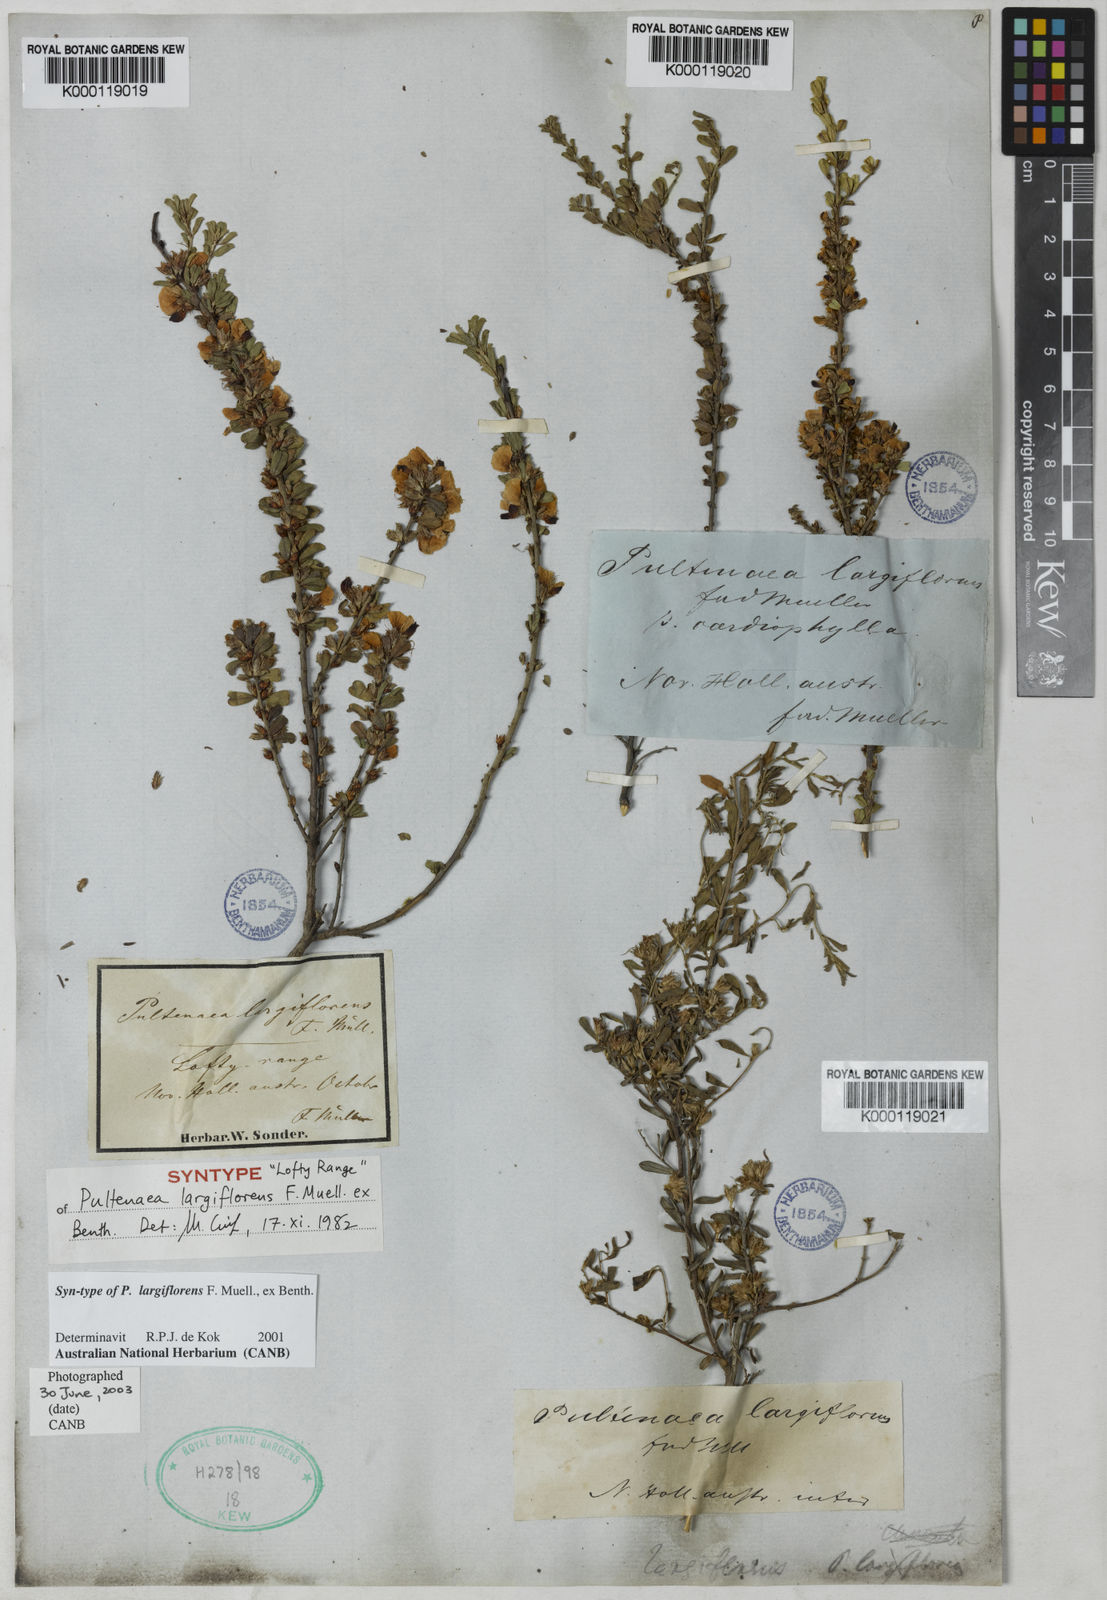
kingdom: Plantae
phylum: Tracheophyta
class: Magnoliopsida
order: Fabales
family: Fabaceae
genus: Pultenaea
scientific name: Pultenaea largiflorens
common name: Twiggy bush-pea
